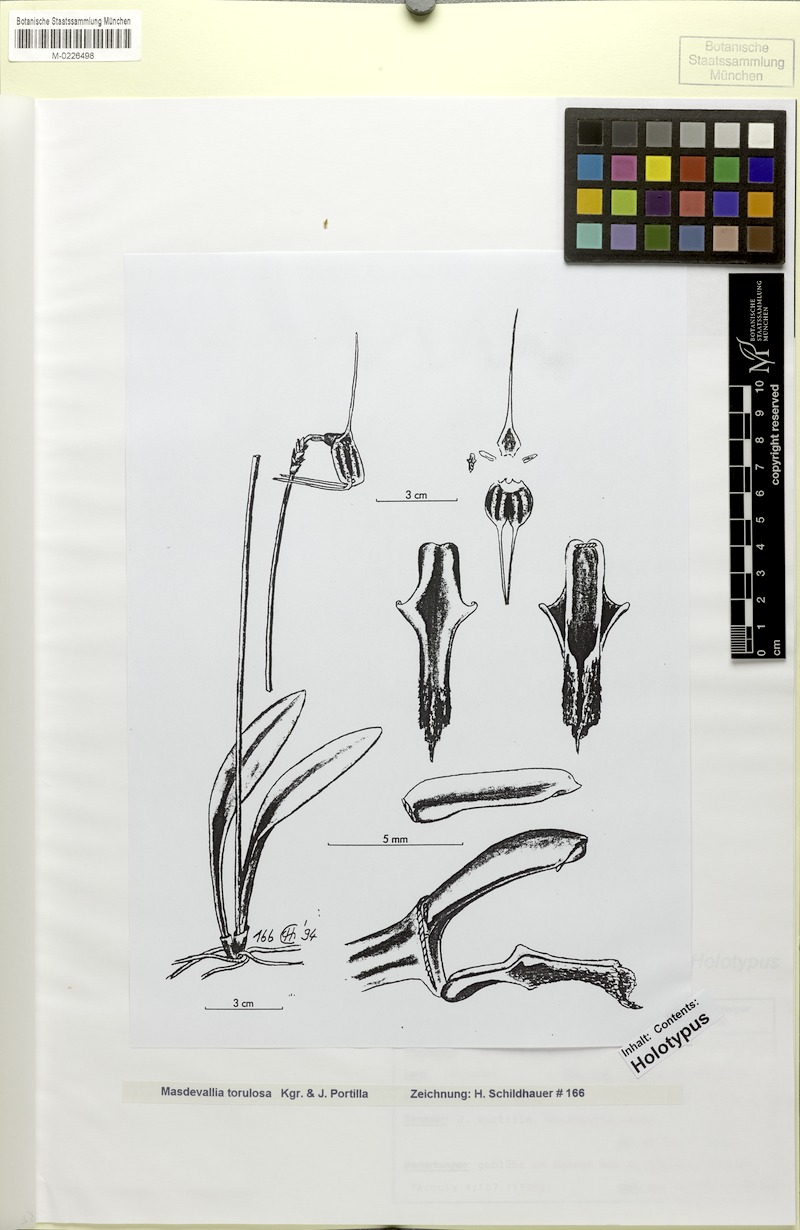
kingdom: Plantae
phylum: Tracheophyta
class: Liliopsida
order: Asparagales
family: Orchidaceae
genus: Masdevallia
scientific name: Masdevallia carruthersiana
